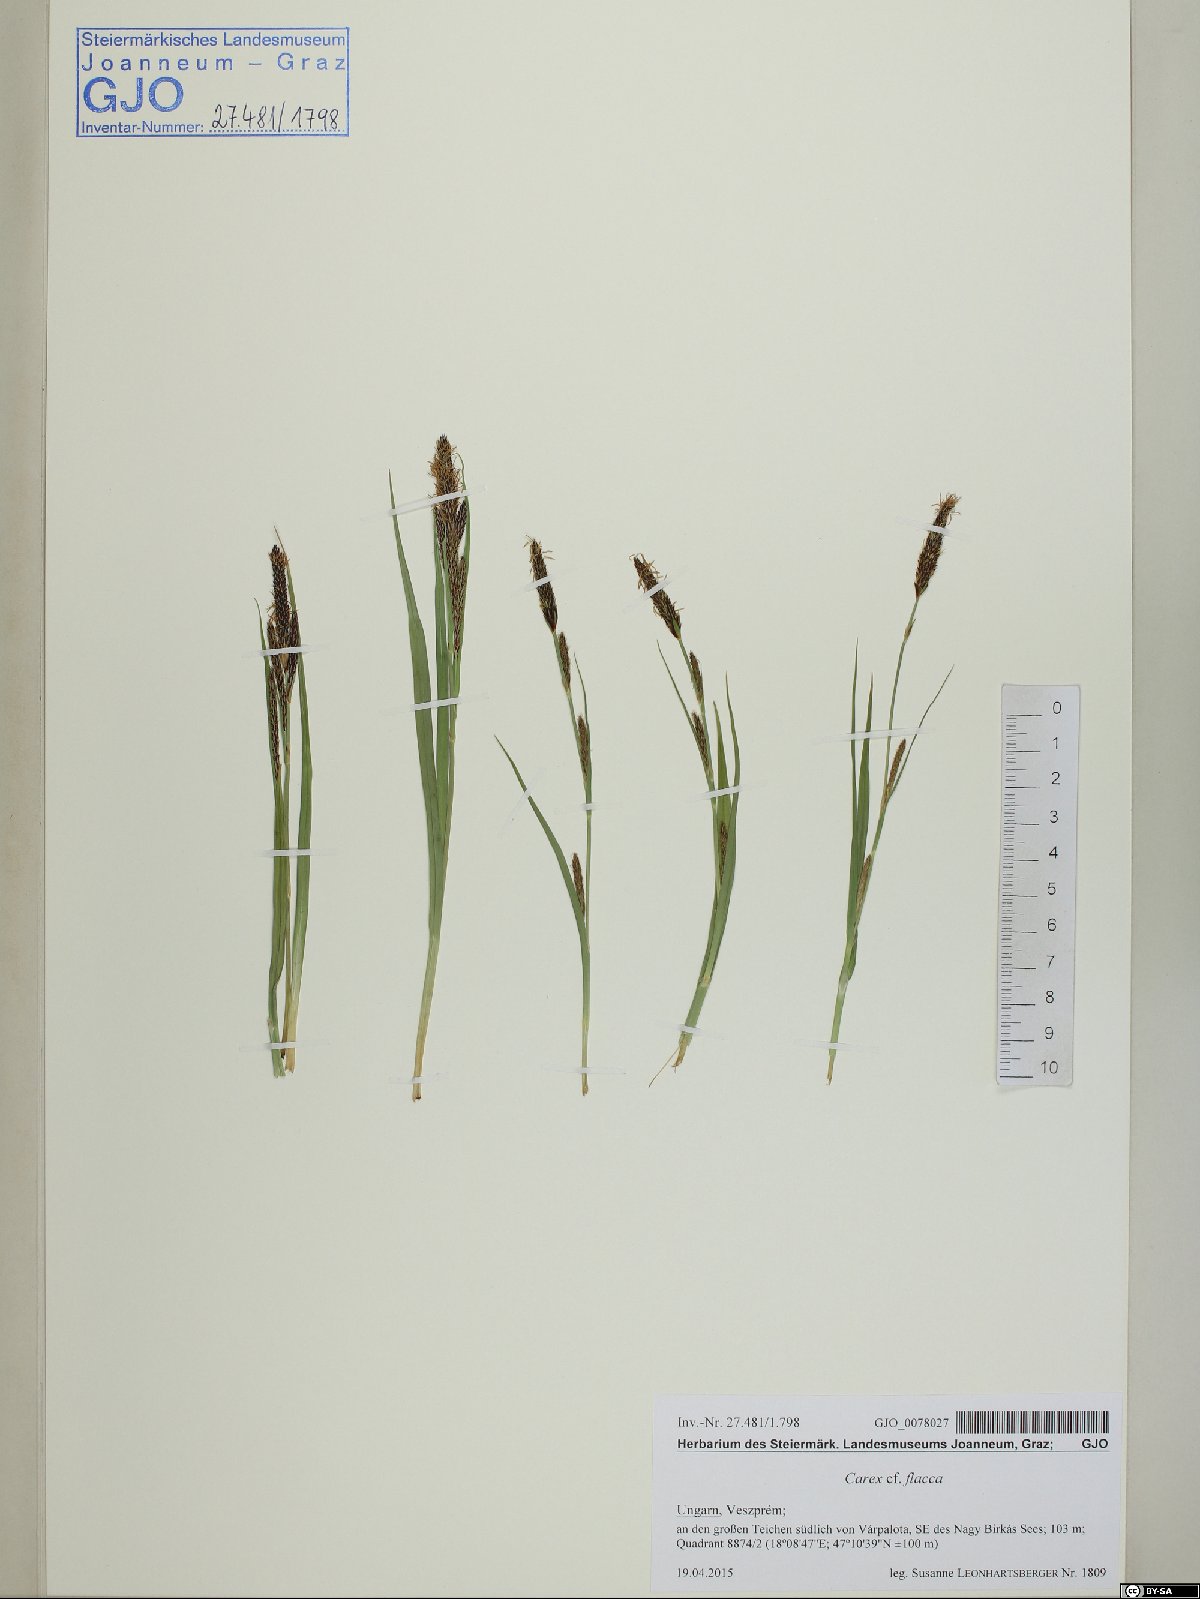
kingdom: Plantae
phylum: Tracheophyta
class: Liliopsida
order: Poales
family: Cyperaceae
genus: Carex
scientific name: Carex flacca
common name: Glaucous sedge
